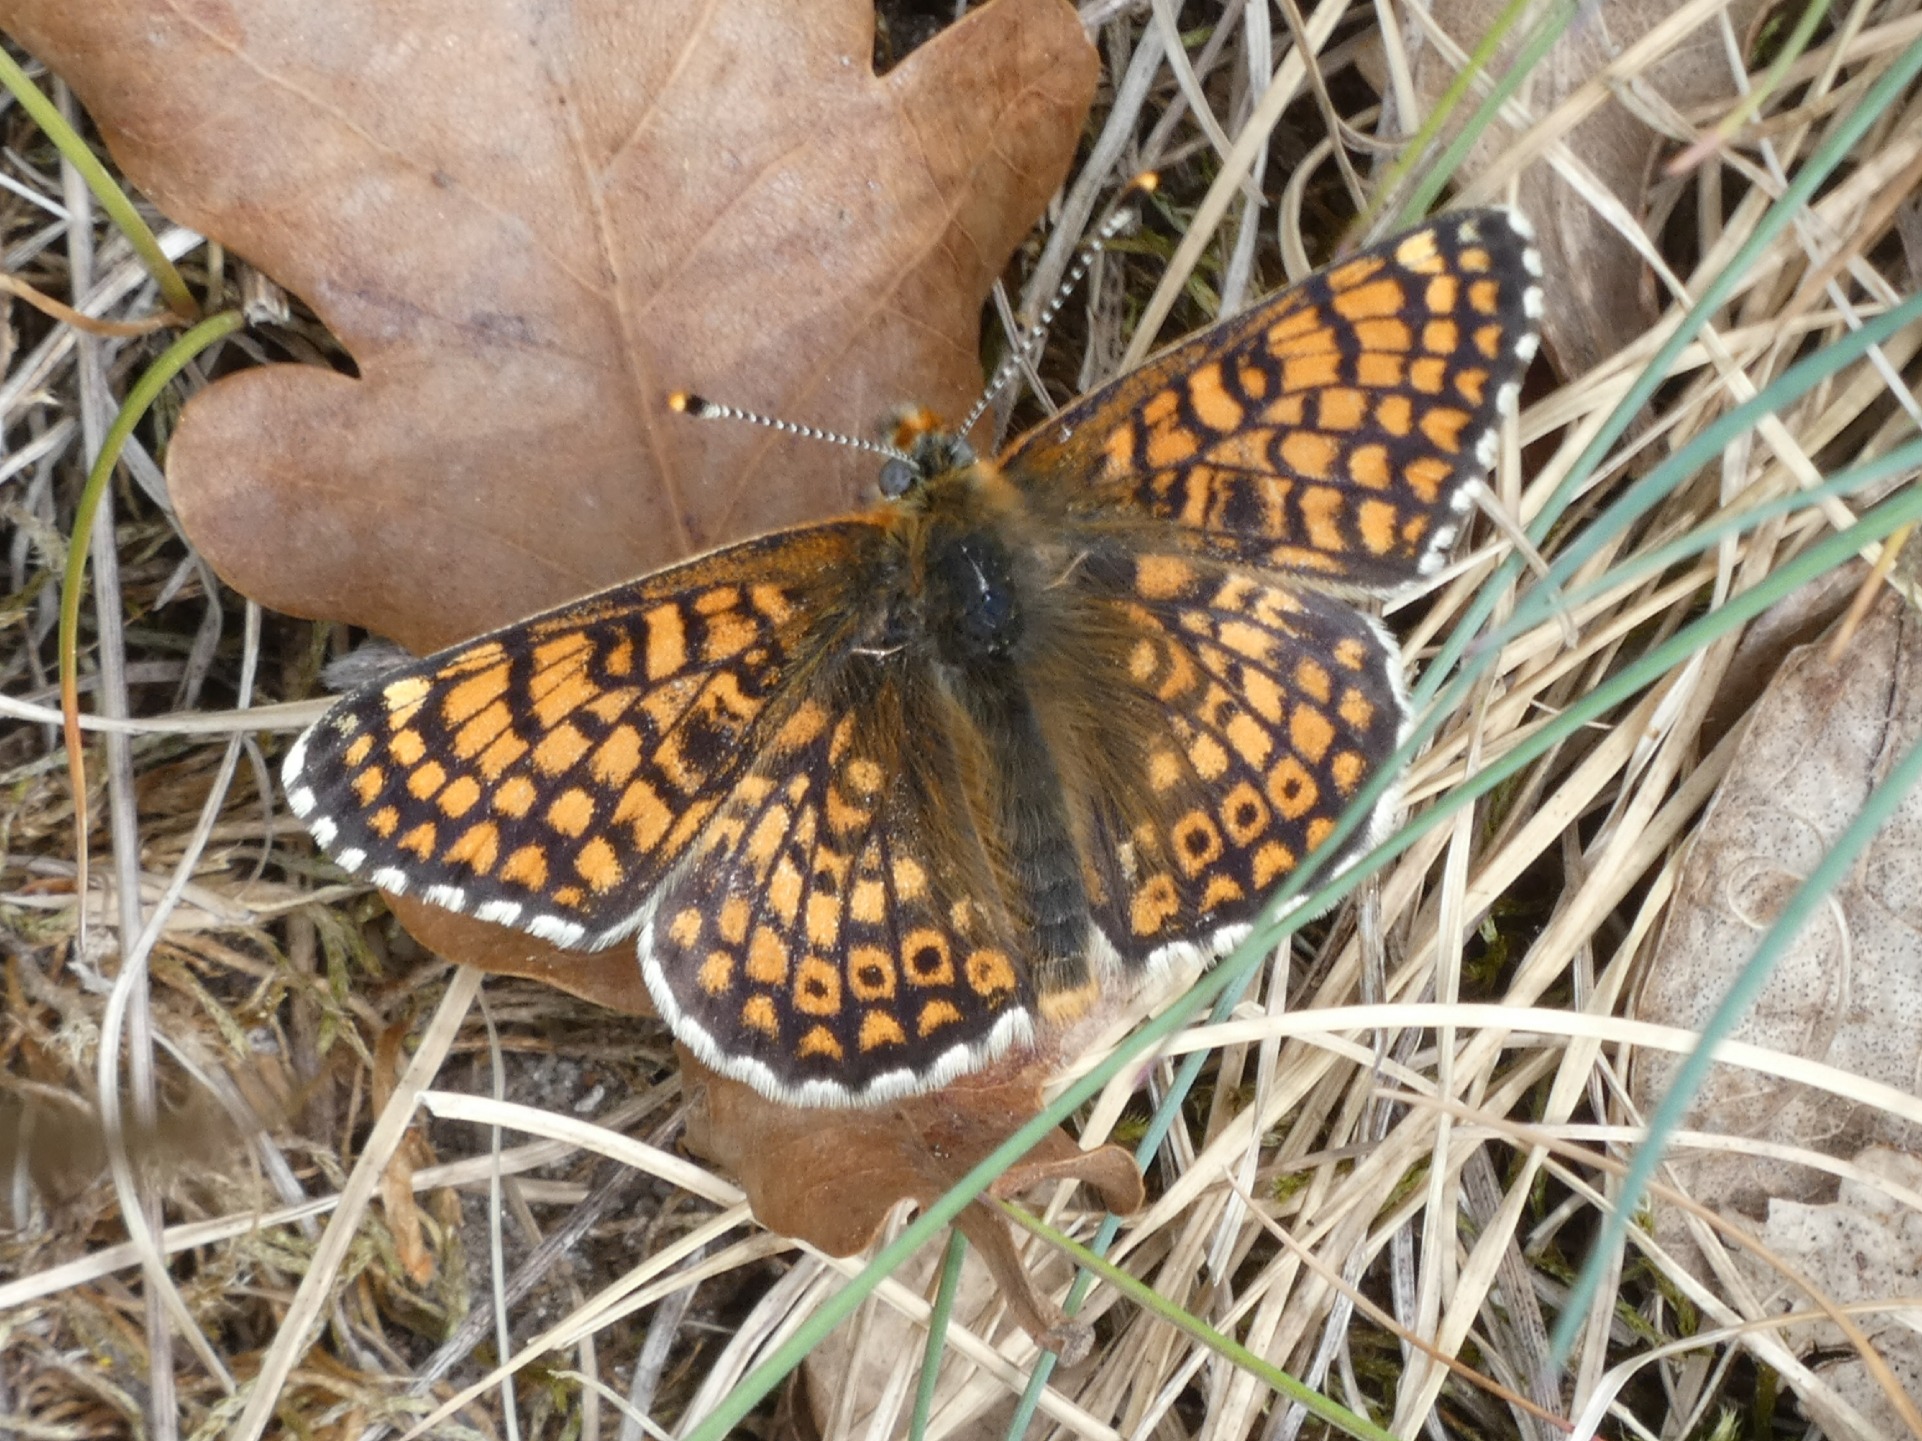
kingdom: Animalia
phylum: Arthropoda
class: Insecta
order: Lepidoptera
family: Nymphalidae
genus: Melitaea
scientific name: Melitaea cinxia
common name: Okkergul pletvinge
